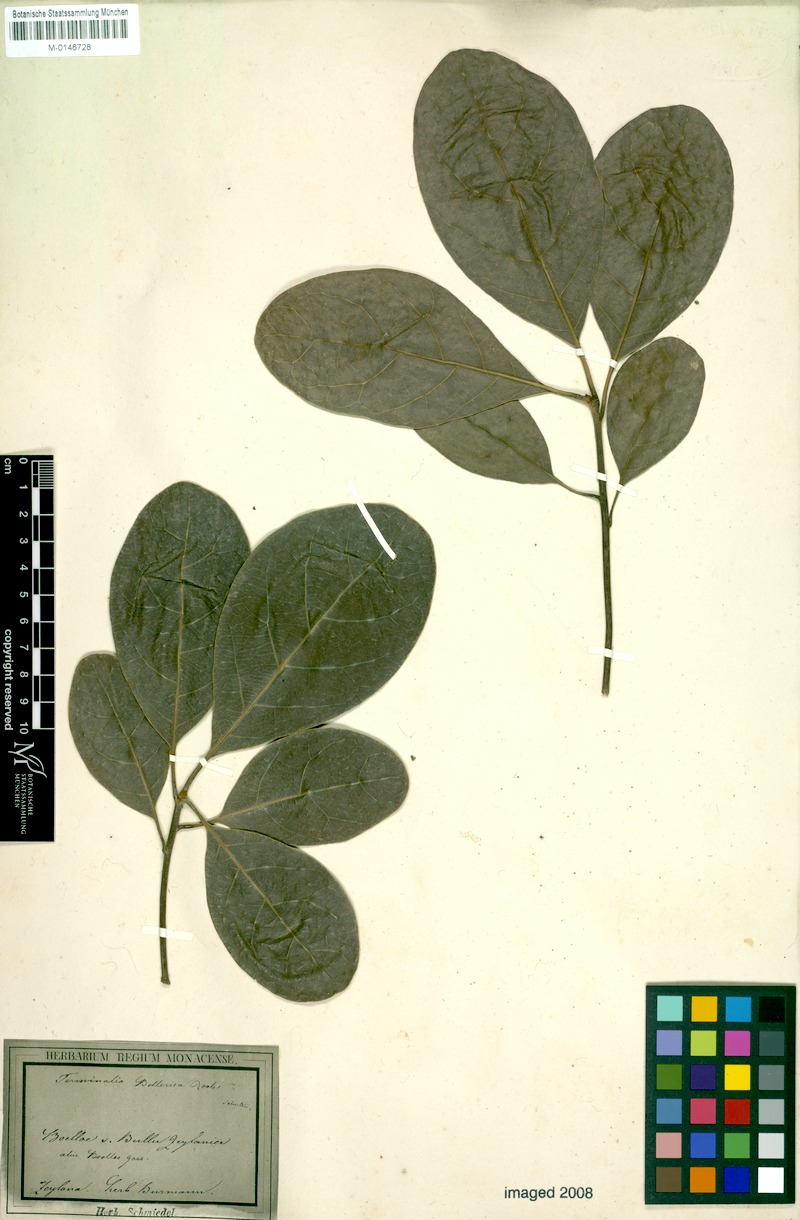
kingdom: Plantae
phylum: Tracheophyta
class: Magnoliopsida
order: Myrtales
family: Combretaceae
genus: Terminalia
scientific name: Terminalia bellirica
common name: Beleric myrobalan
